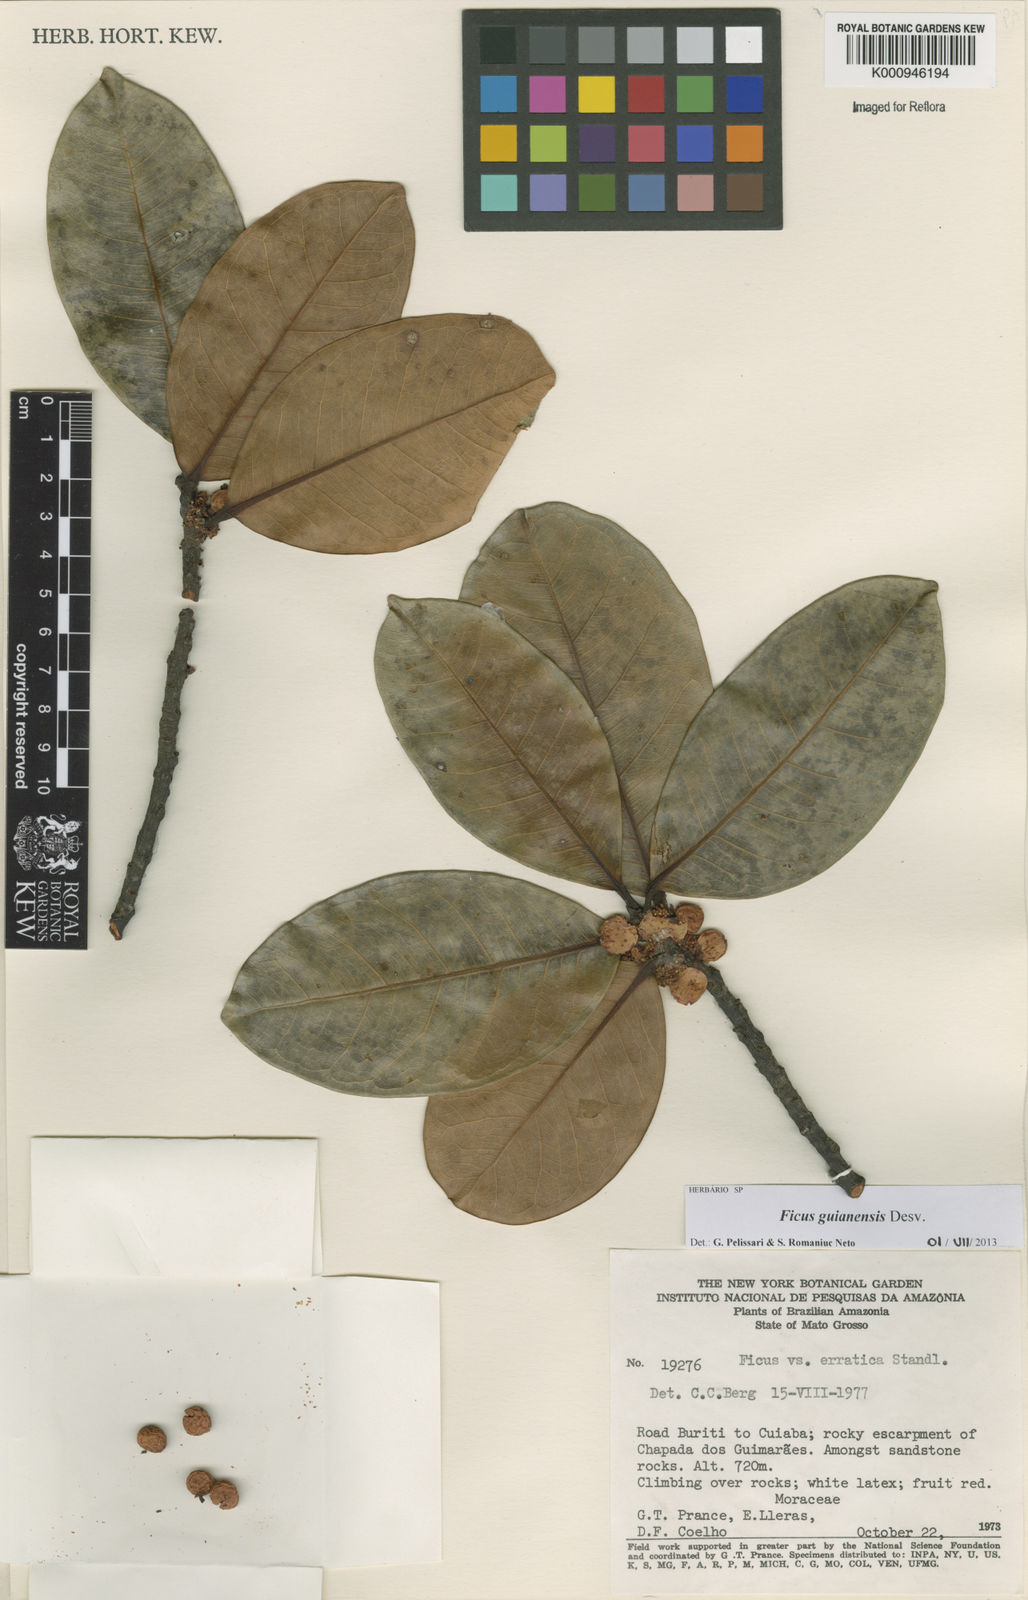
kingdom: Plantae
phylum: Tracheophyta
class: Magnoliopsida
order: Rosales
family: Moraceae
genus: Ficus
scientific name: Ficus americana
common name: Jamaican cherry fig
